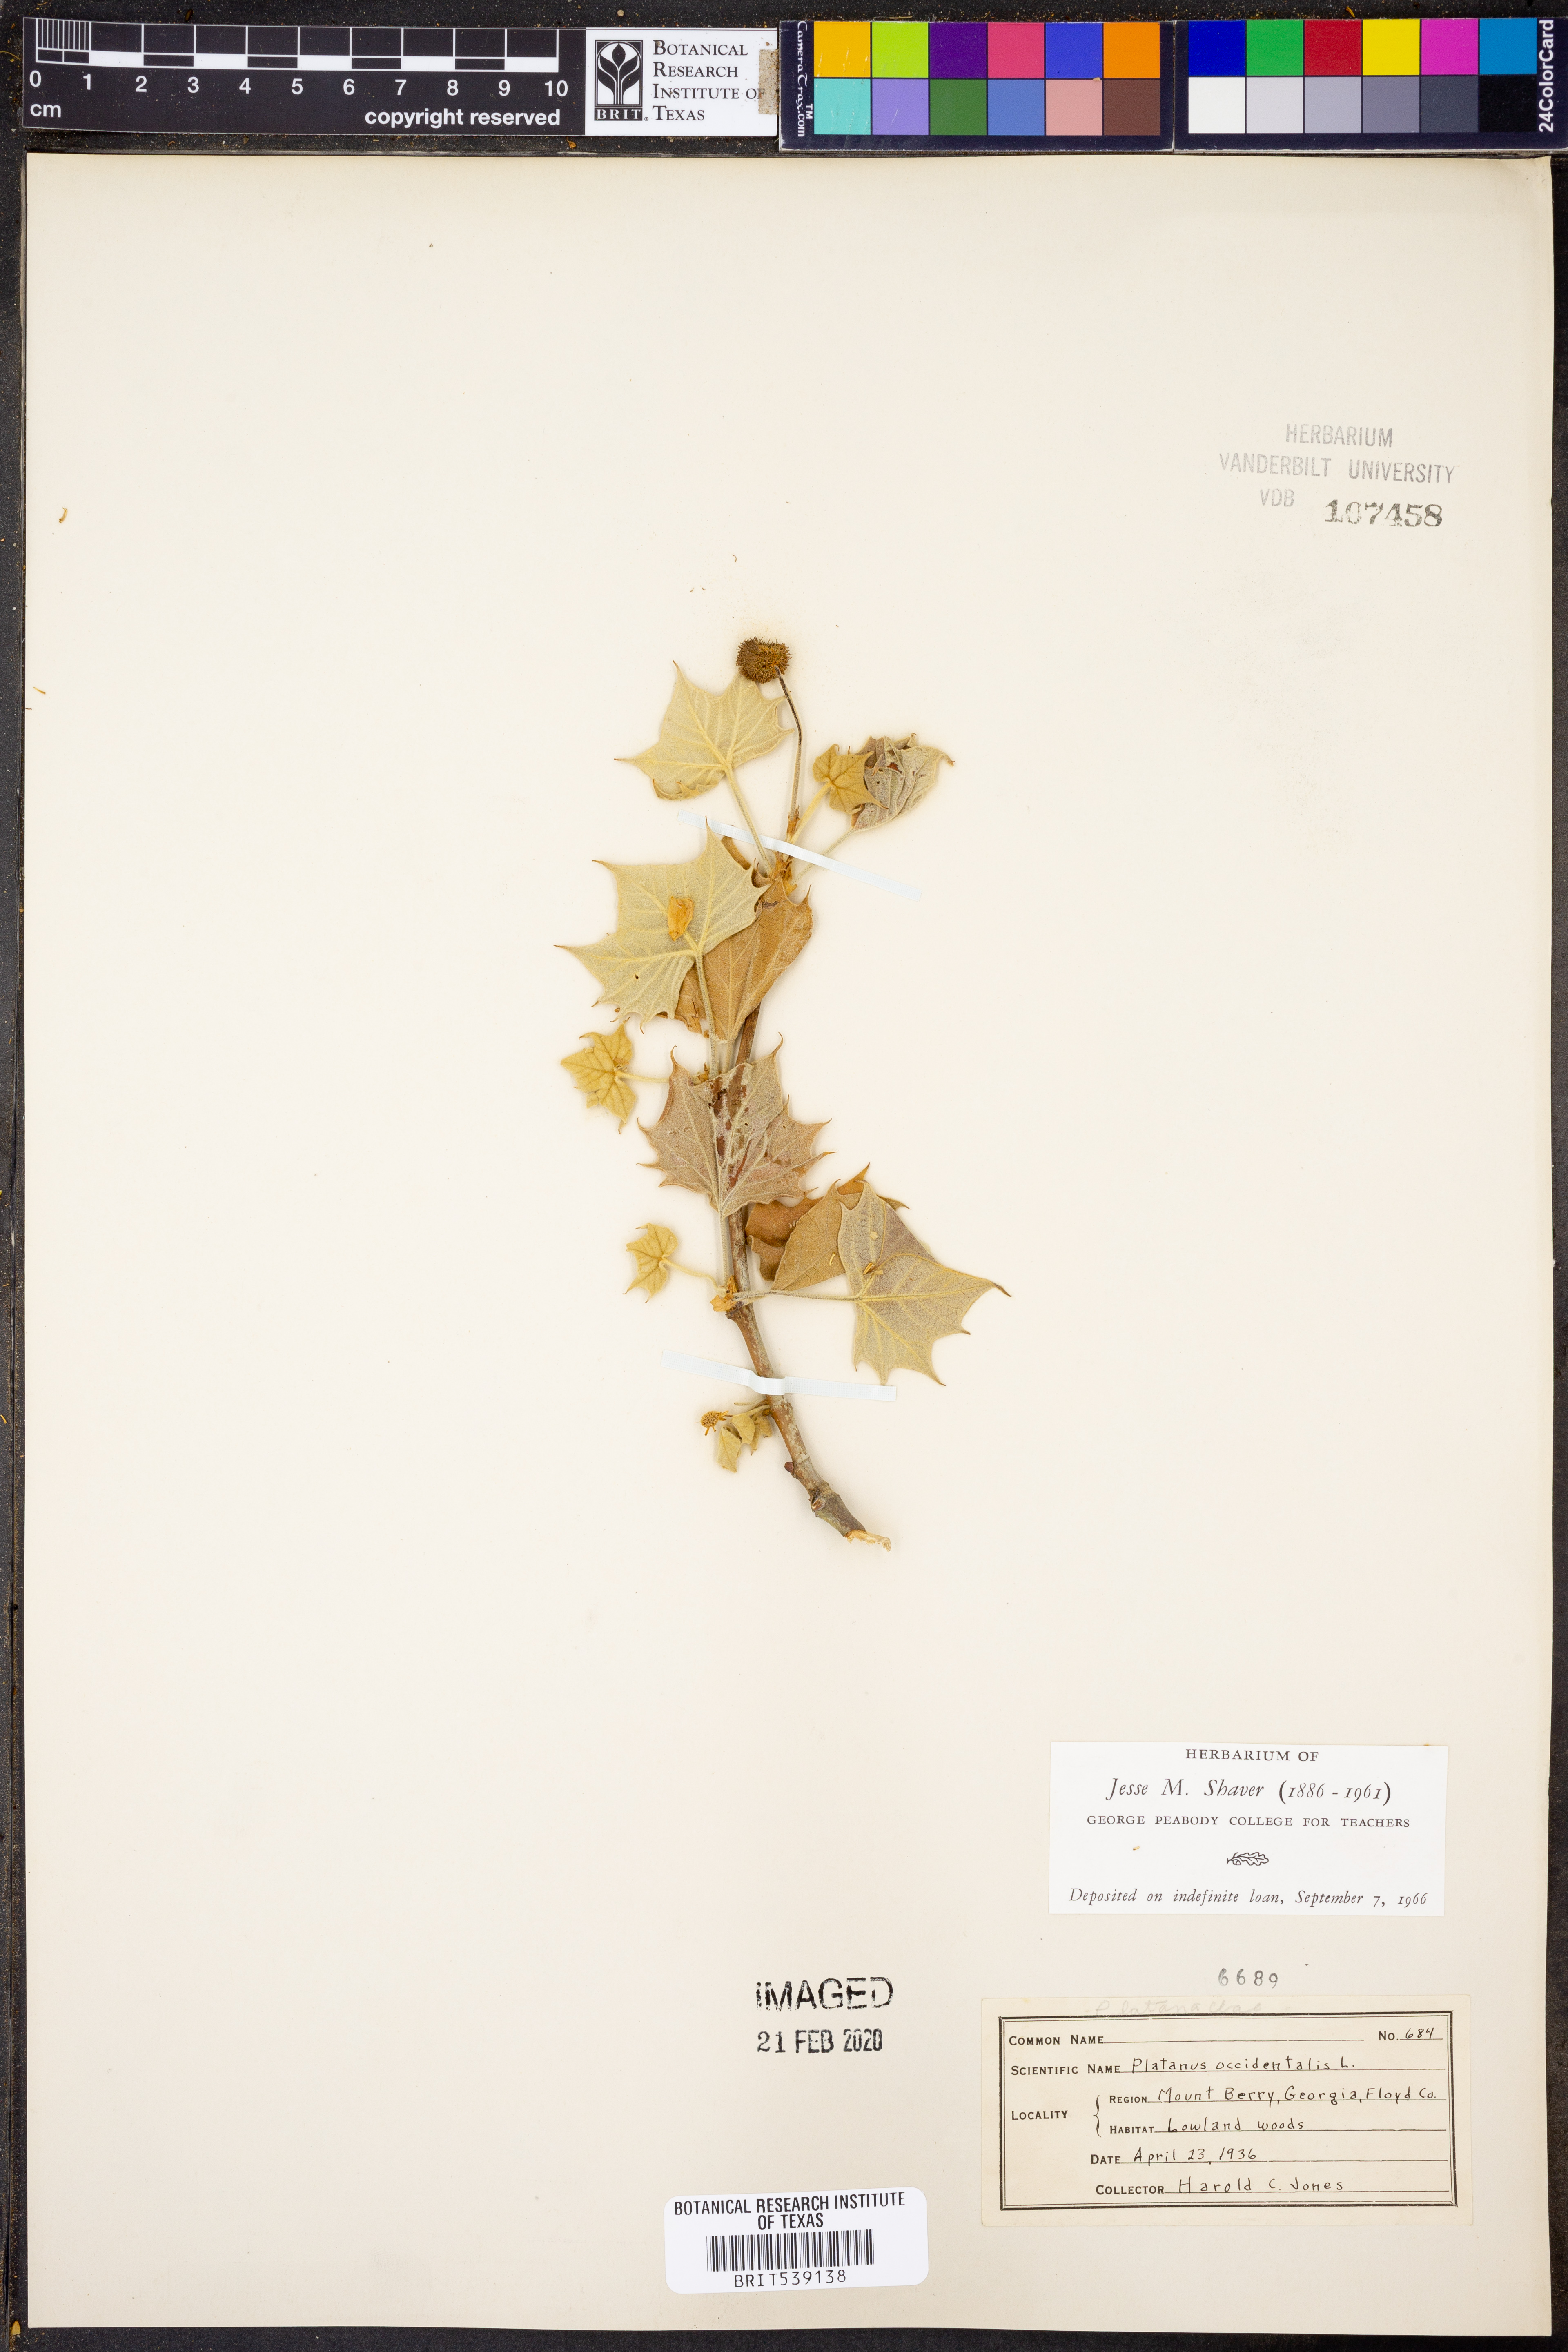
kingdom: Plantae
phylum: Tracheophyta
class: Magnoliopsida
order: Proteales
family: Platanaceae
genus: Platanus
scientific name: Platanus occidentalis
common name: American sycamore
